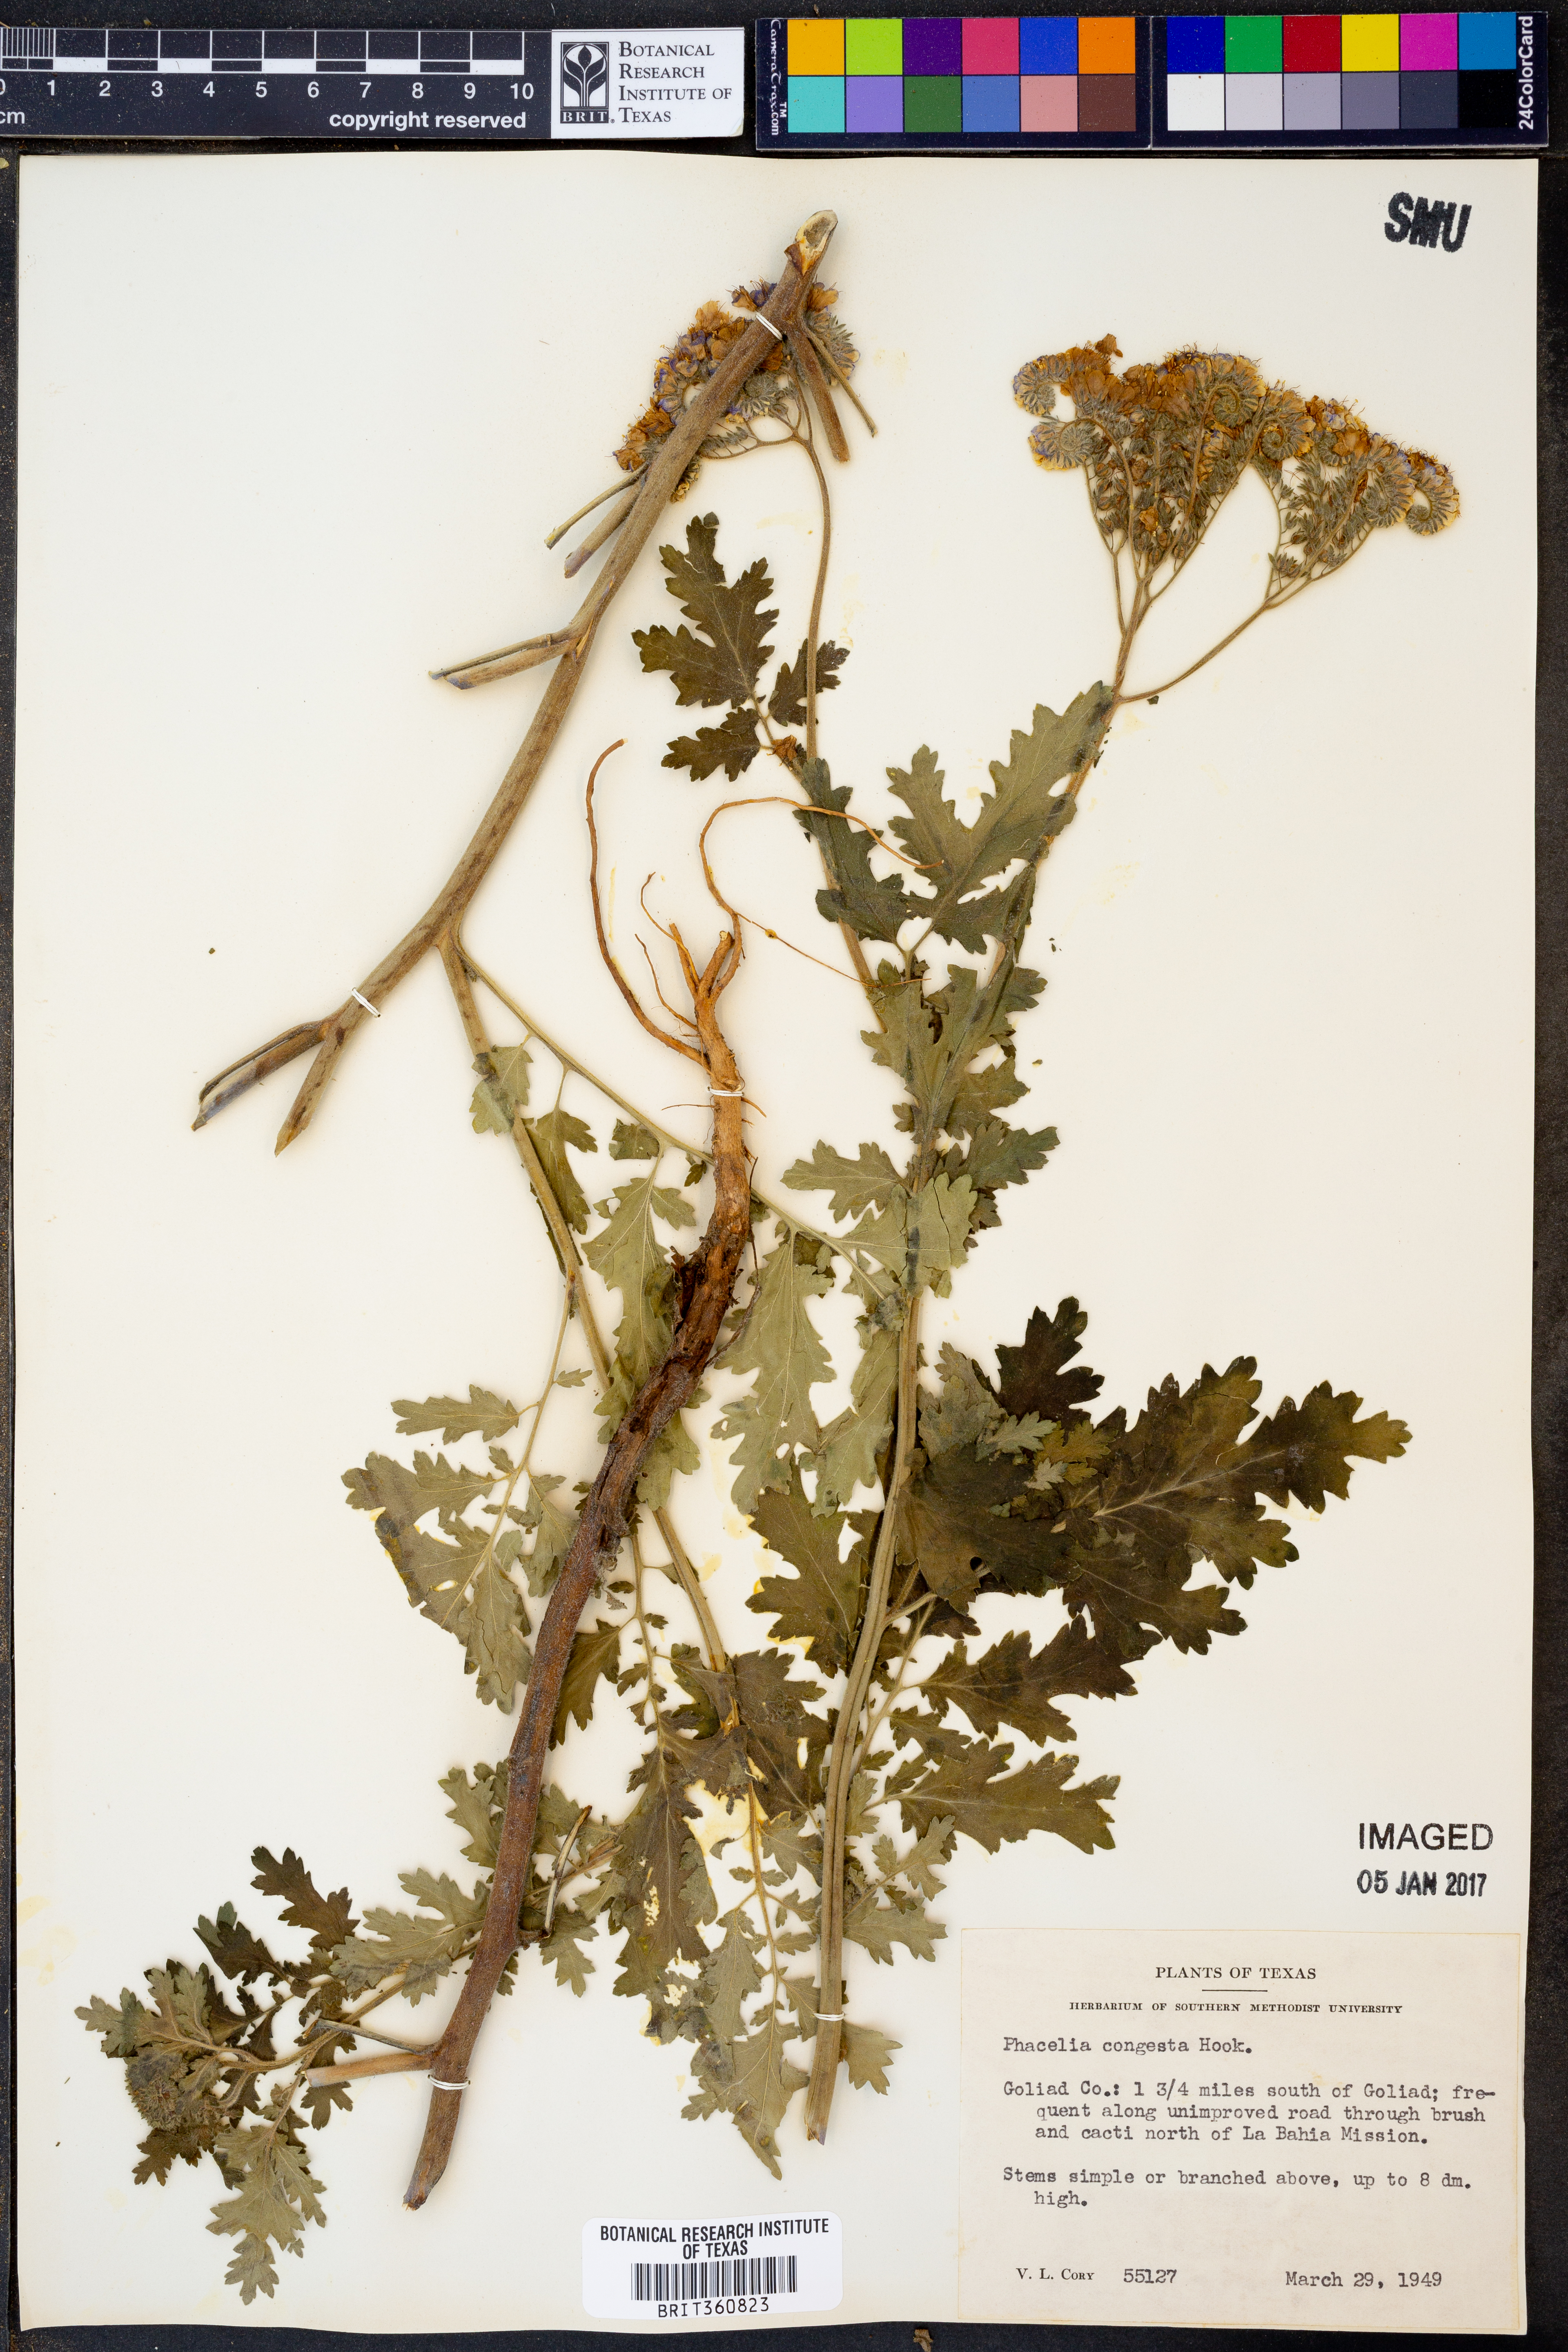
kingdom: Plantae
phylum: Tracheophyta
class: Magnoliopsida
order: Boraginales
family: Hydrophyllaceae
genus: Phacelia
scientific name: Phacelia congesta
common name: Blue curls
